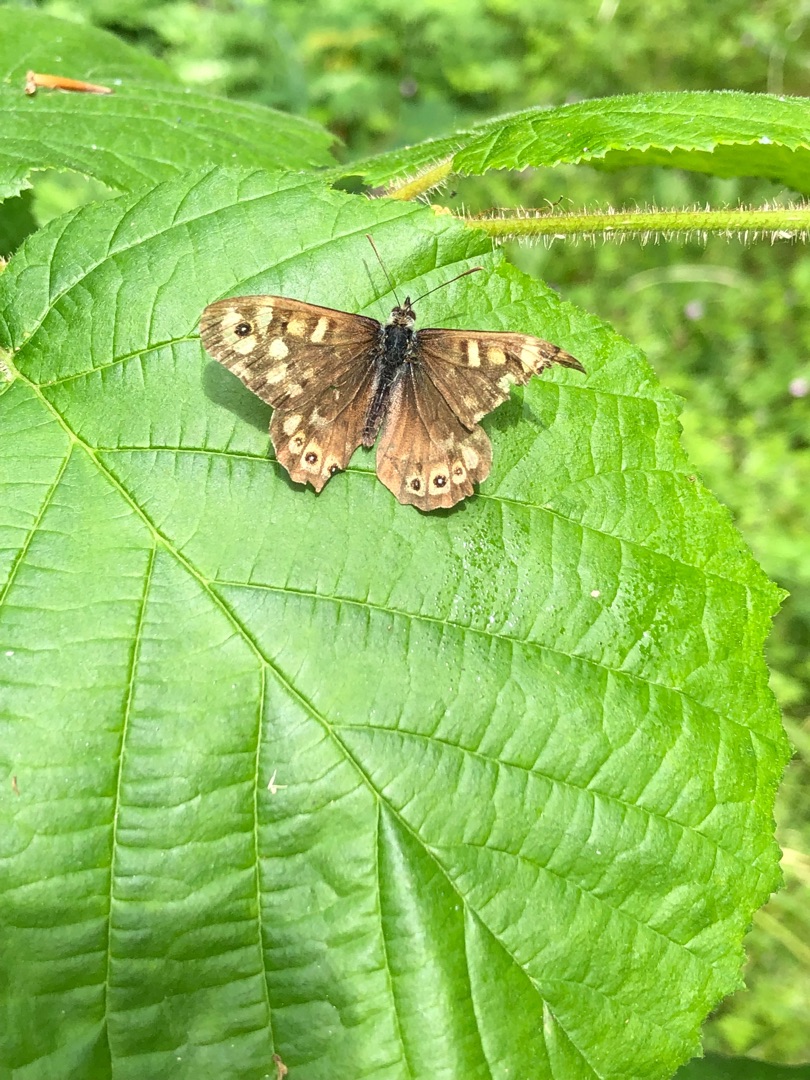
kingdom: Animalia
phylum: Arthropoda
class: Insecta
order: Lepidoptera
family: Nymphalidae
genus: Pararge
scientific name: Pararge aegeria
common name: Skovrandøje
